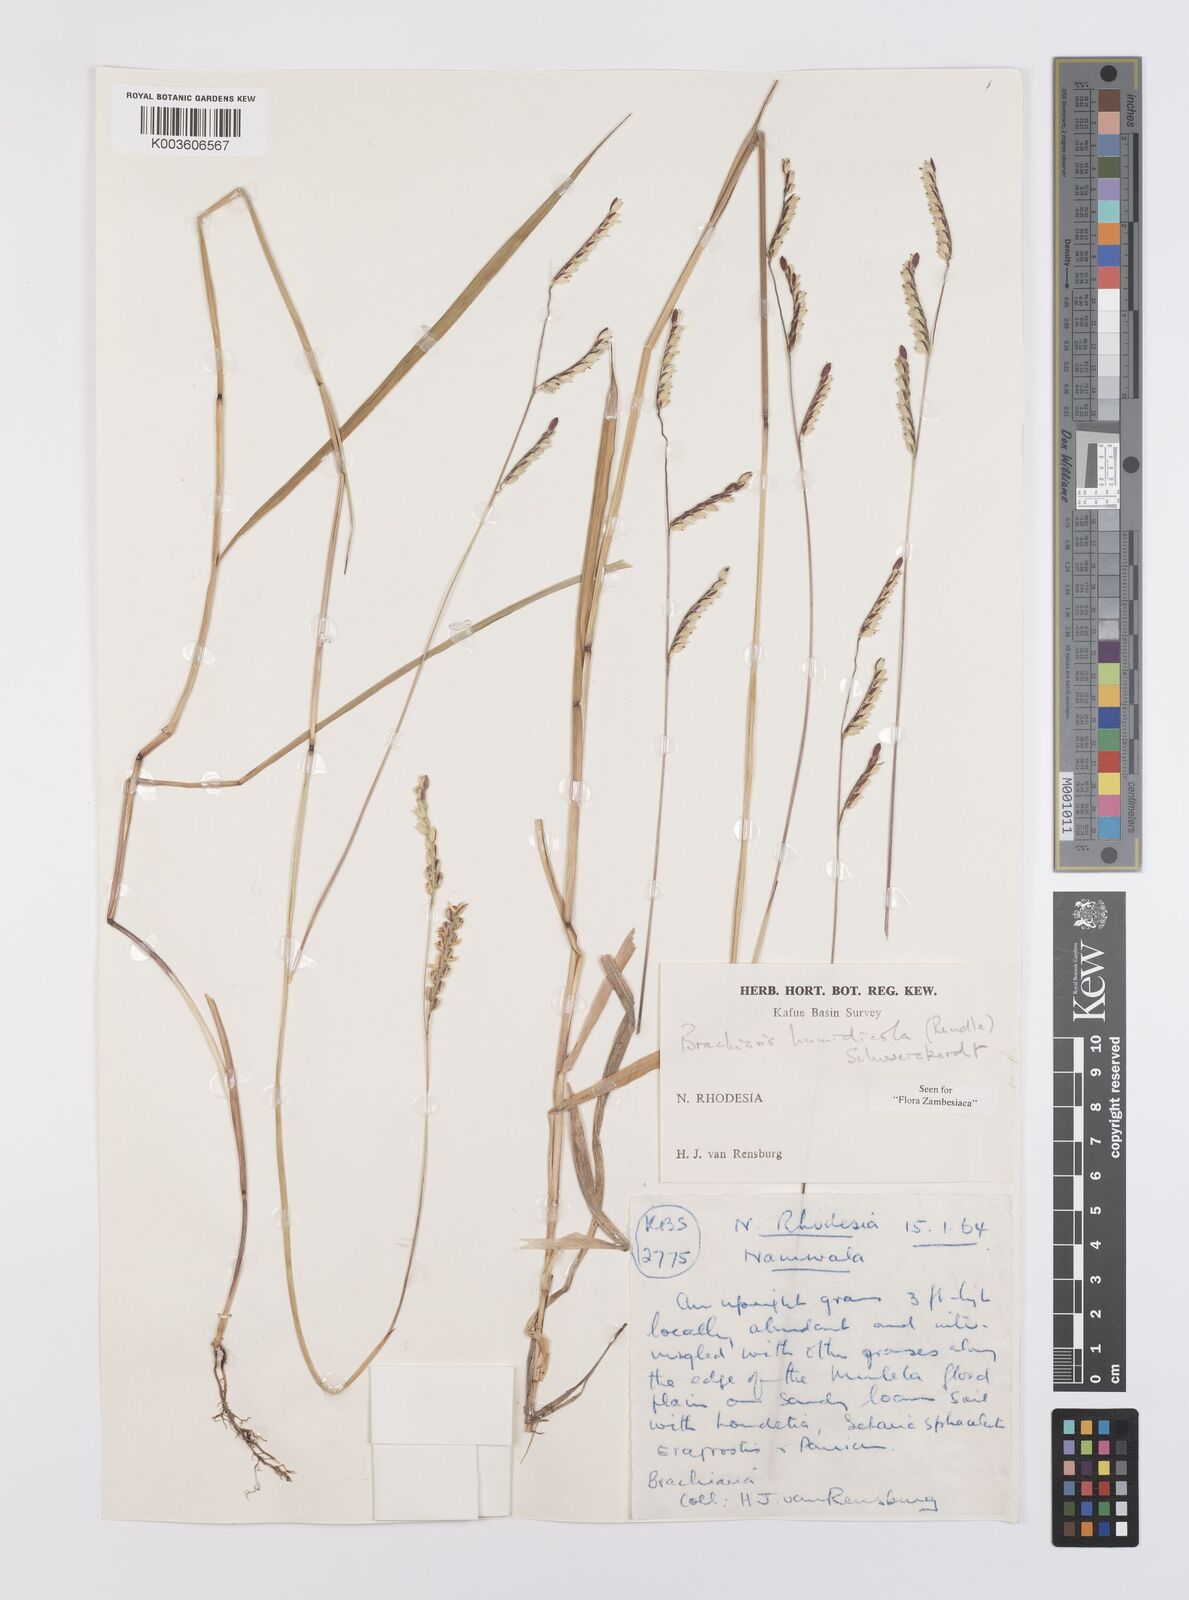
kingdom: Plantae
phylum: Tracheophyta
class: Liliopsida
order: Poales
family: Poaceae
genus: Urochloa
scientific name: Urochloa dictyoneura
